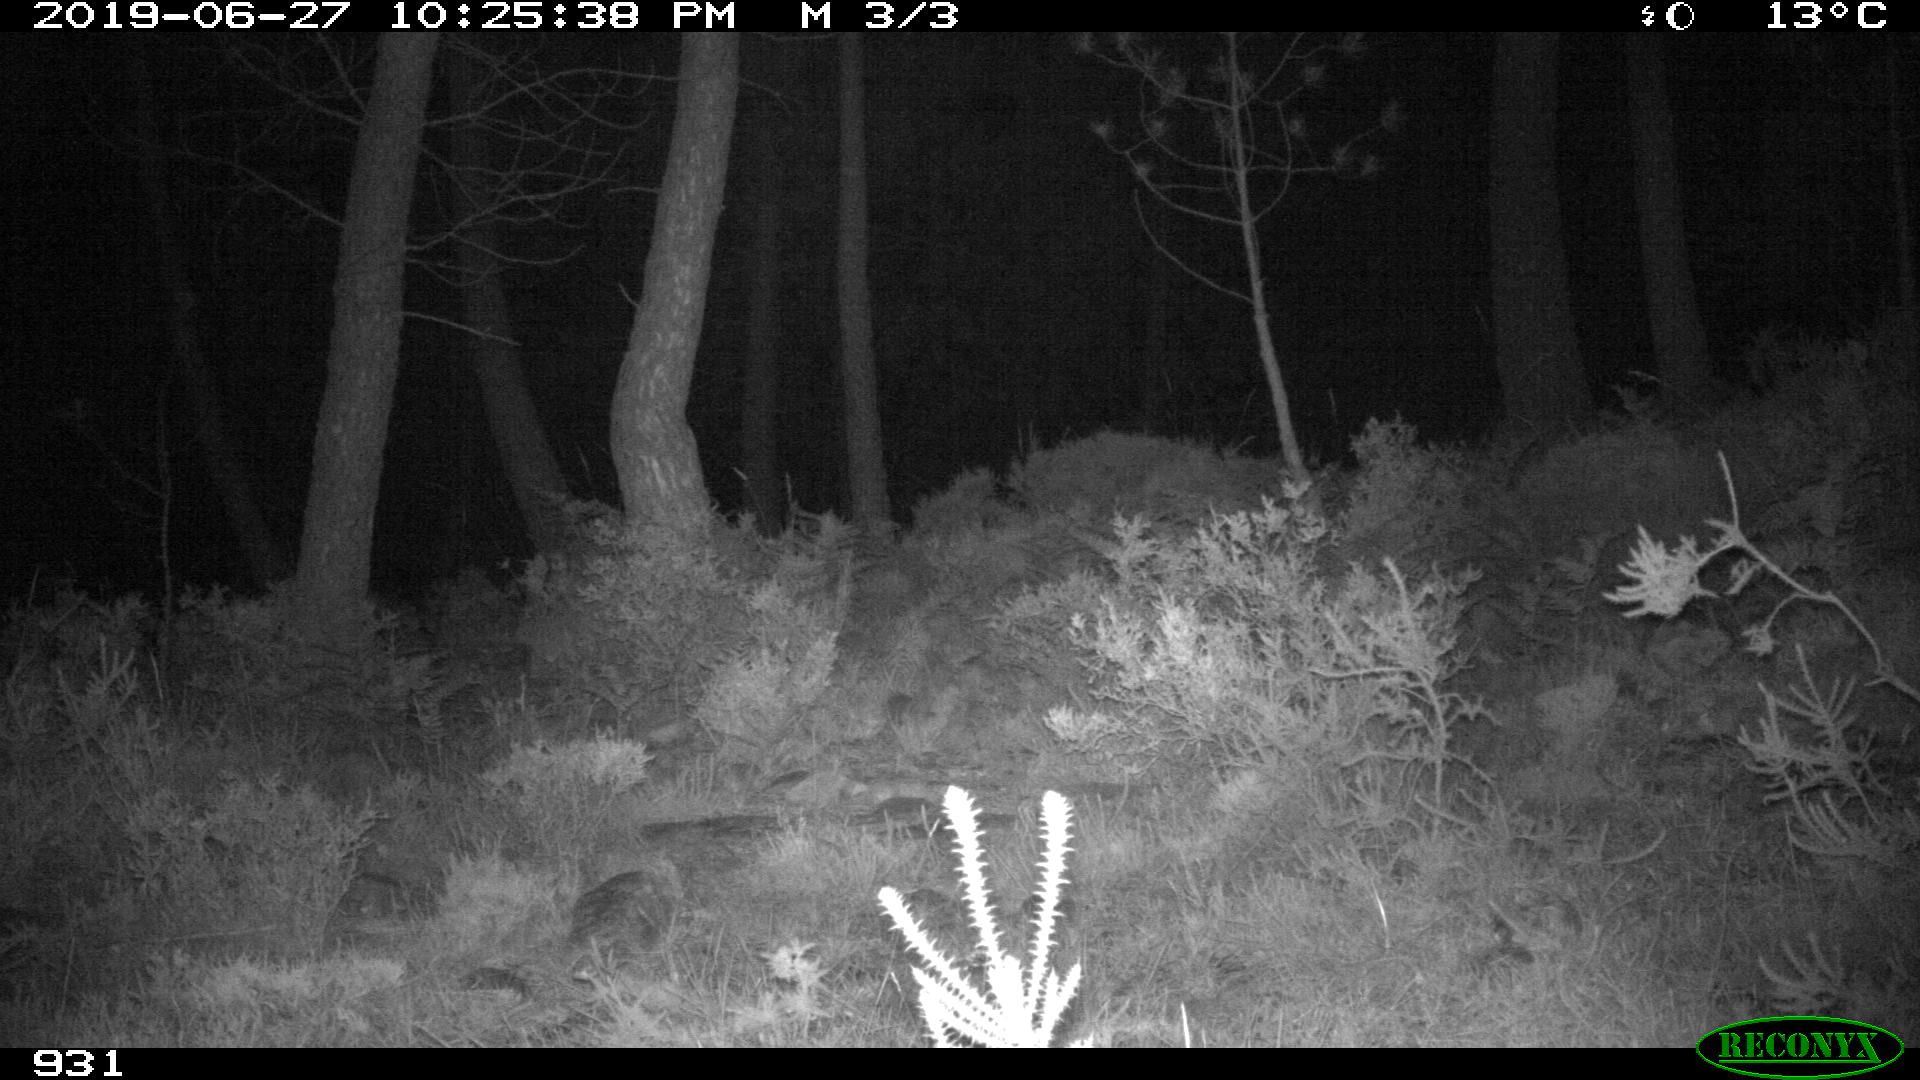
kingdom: Animalia
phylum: Chordata
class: Mammalia
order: Carnivora
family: Canidae
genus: Canis
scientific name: Canis lupus
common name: Gray wolf
